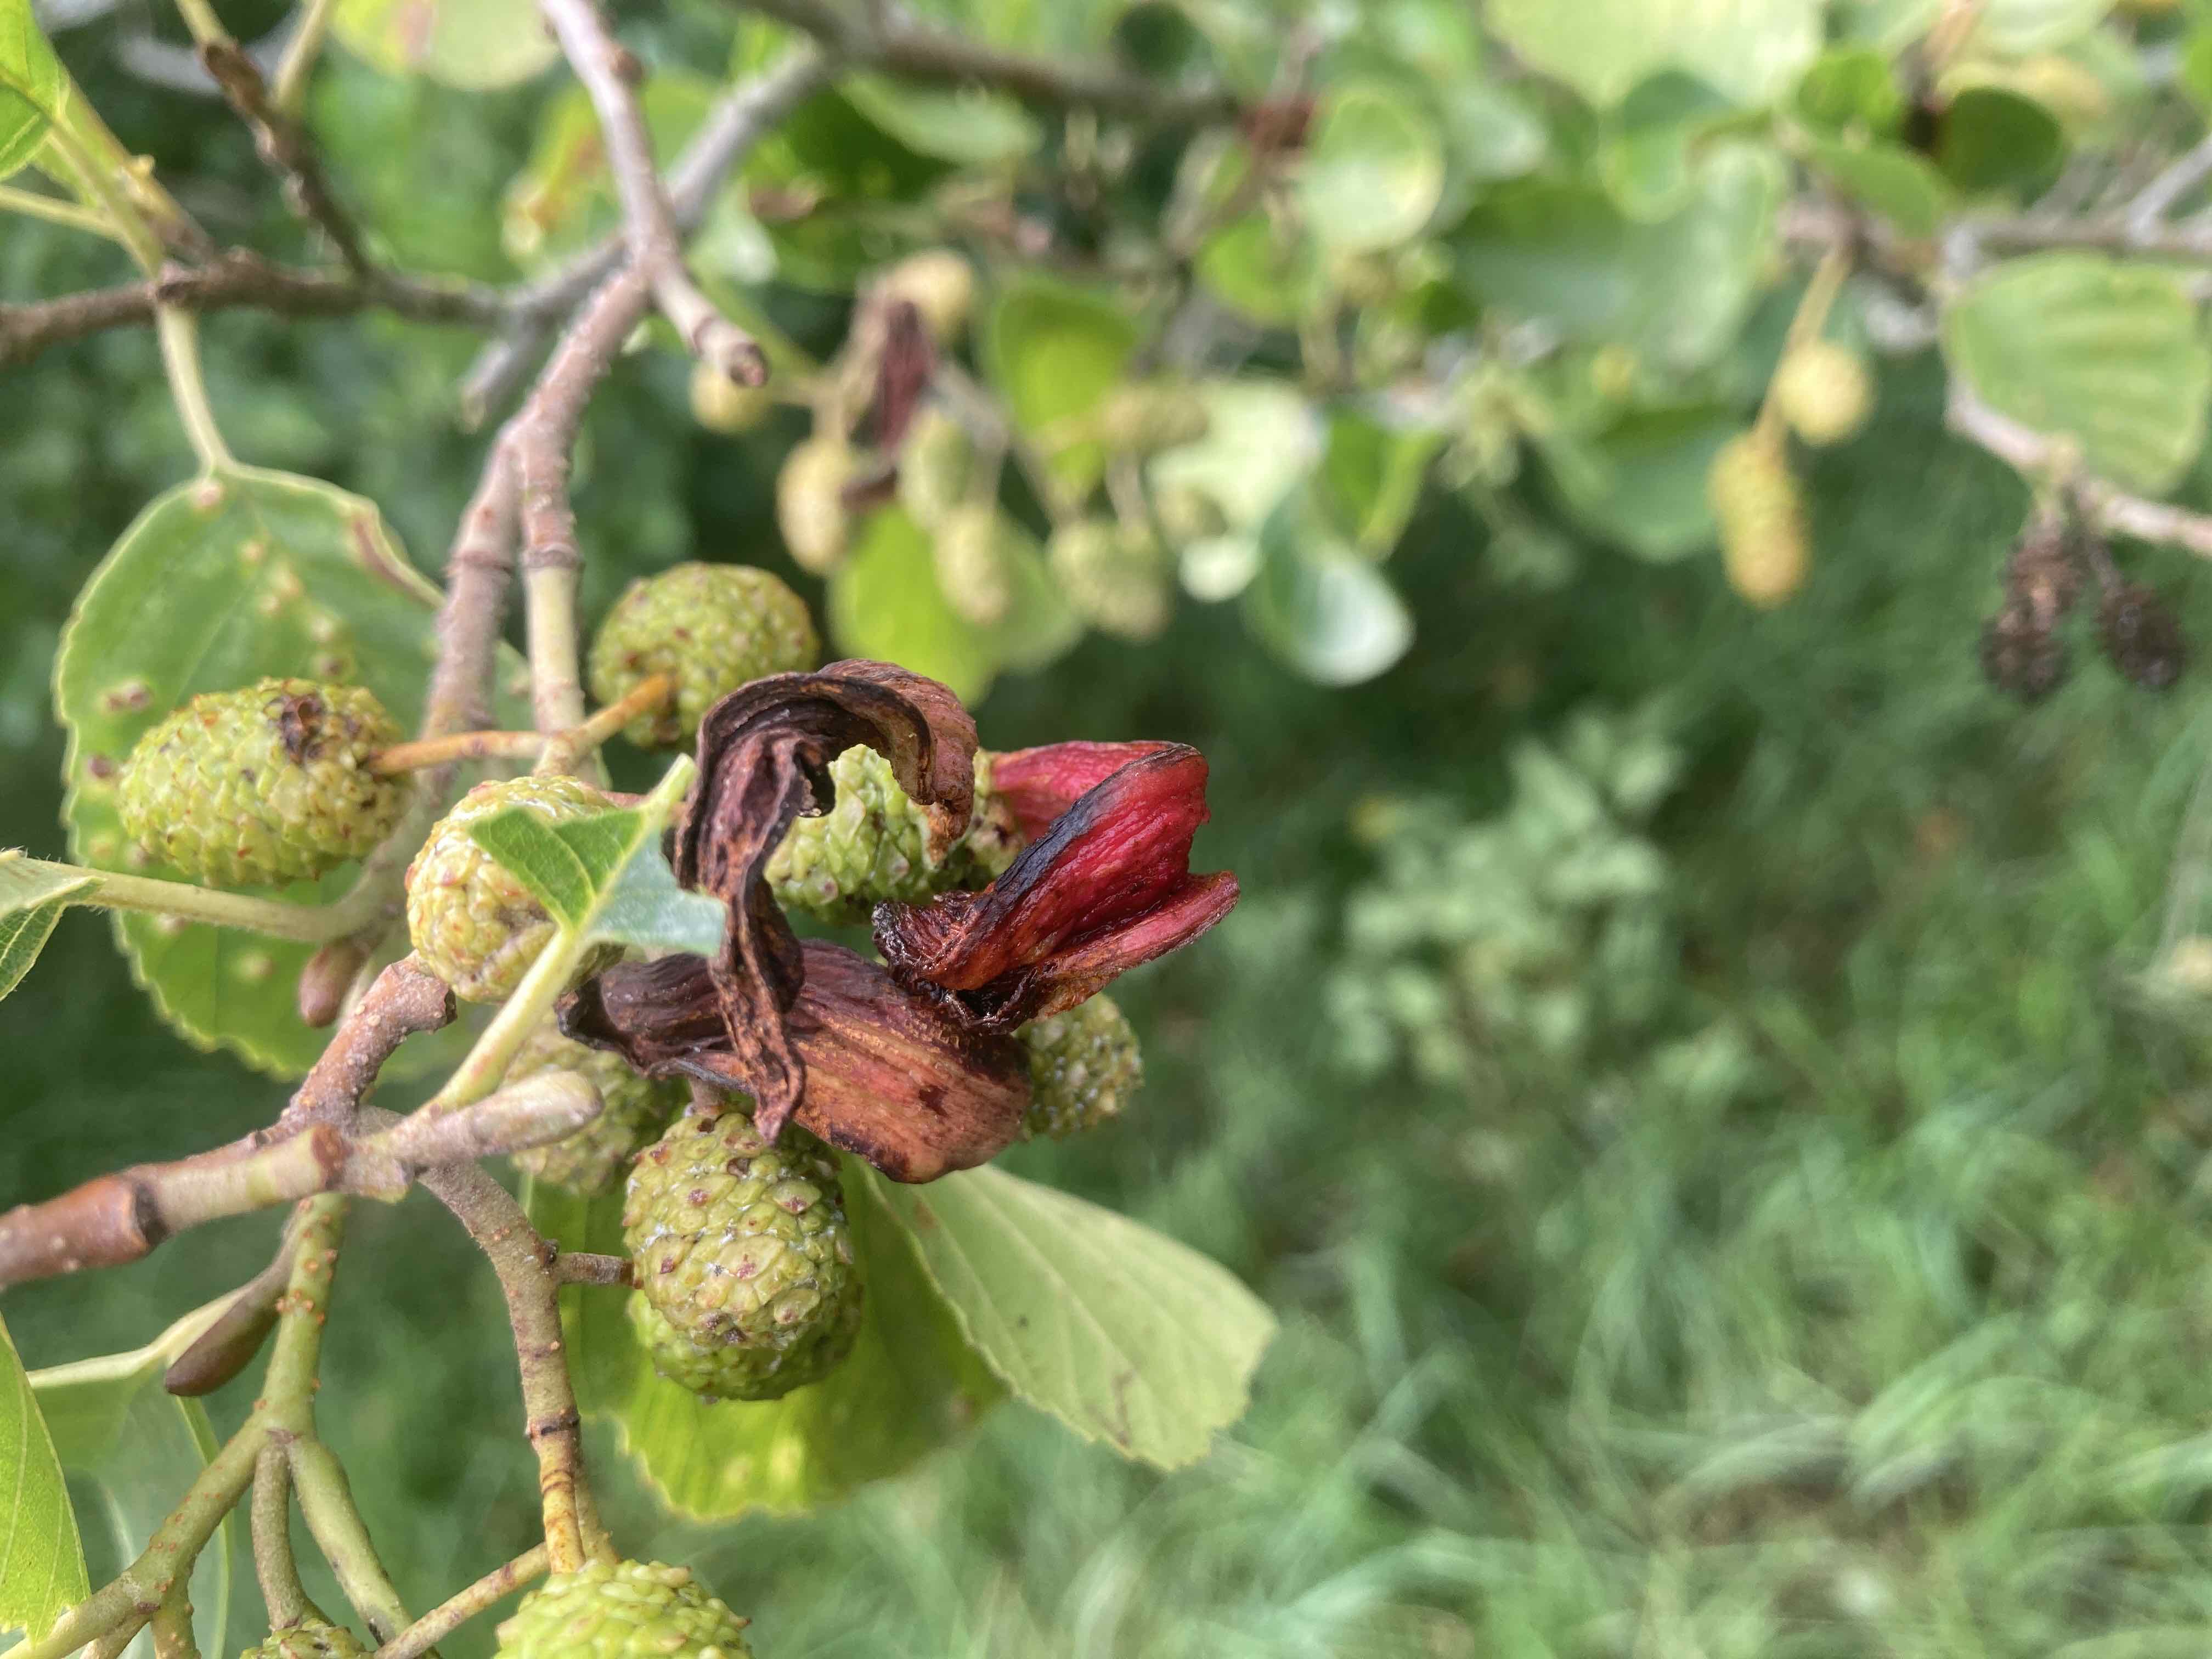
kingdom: Fungi
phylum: Ascomycota
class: Taphrinomycetes
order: Taphrinales
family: Taphrinaceae
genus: Taphrina
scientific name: Taphrina alni
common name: Alder tongue
